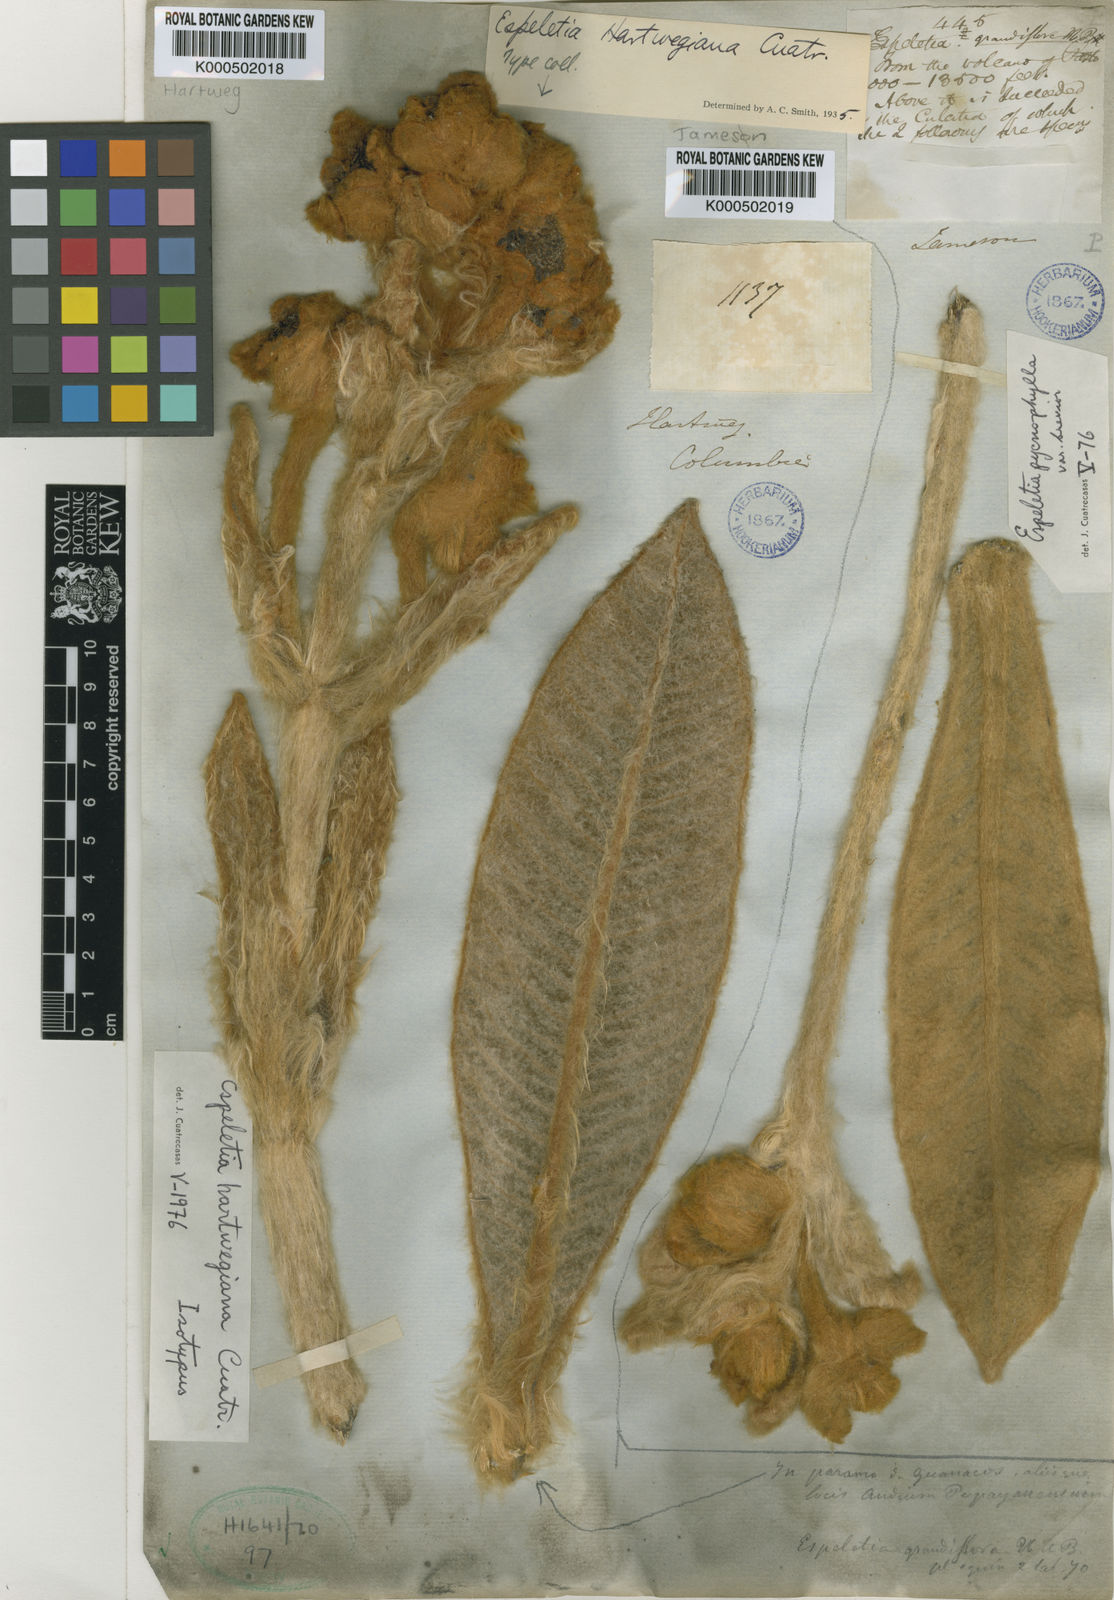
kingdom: Plantae
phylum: Tracheophyta
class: Magnoliopsida
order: Asterales
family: Asteraceae
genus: Espeletia
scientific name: Espeletia
